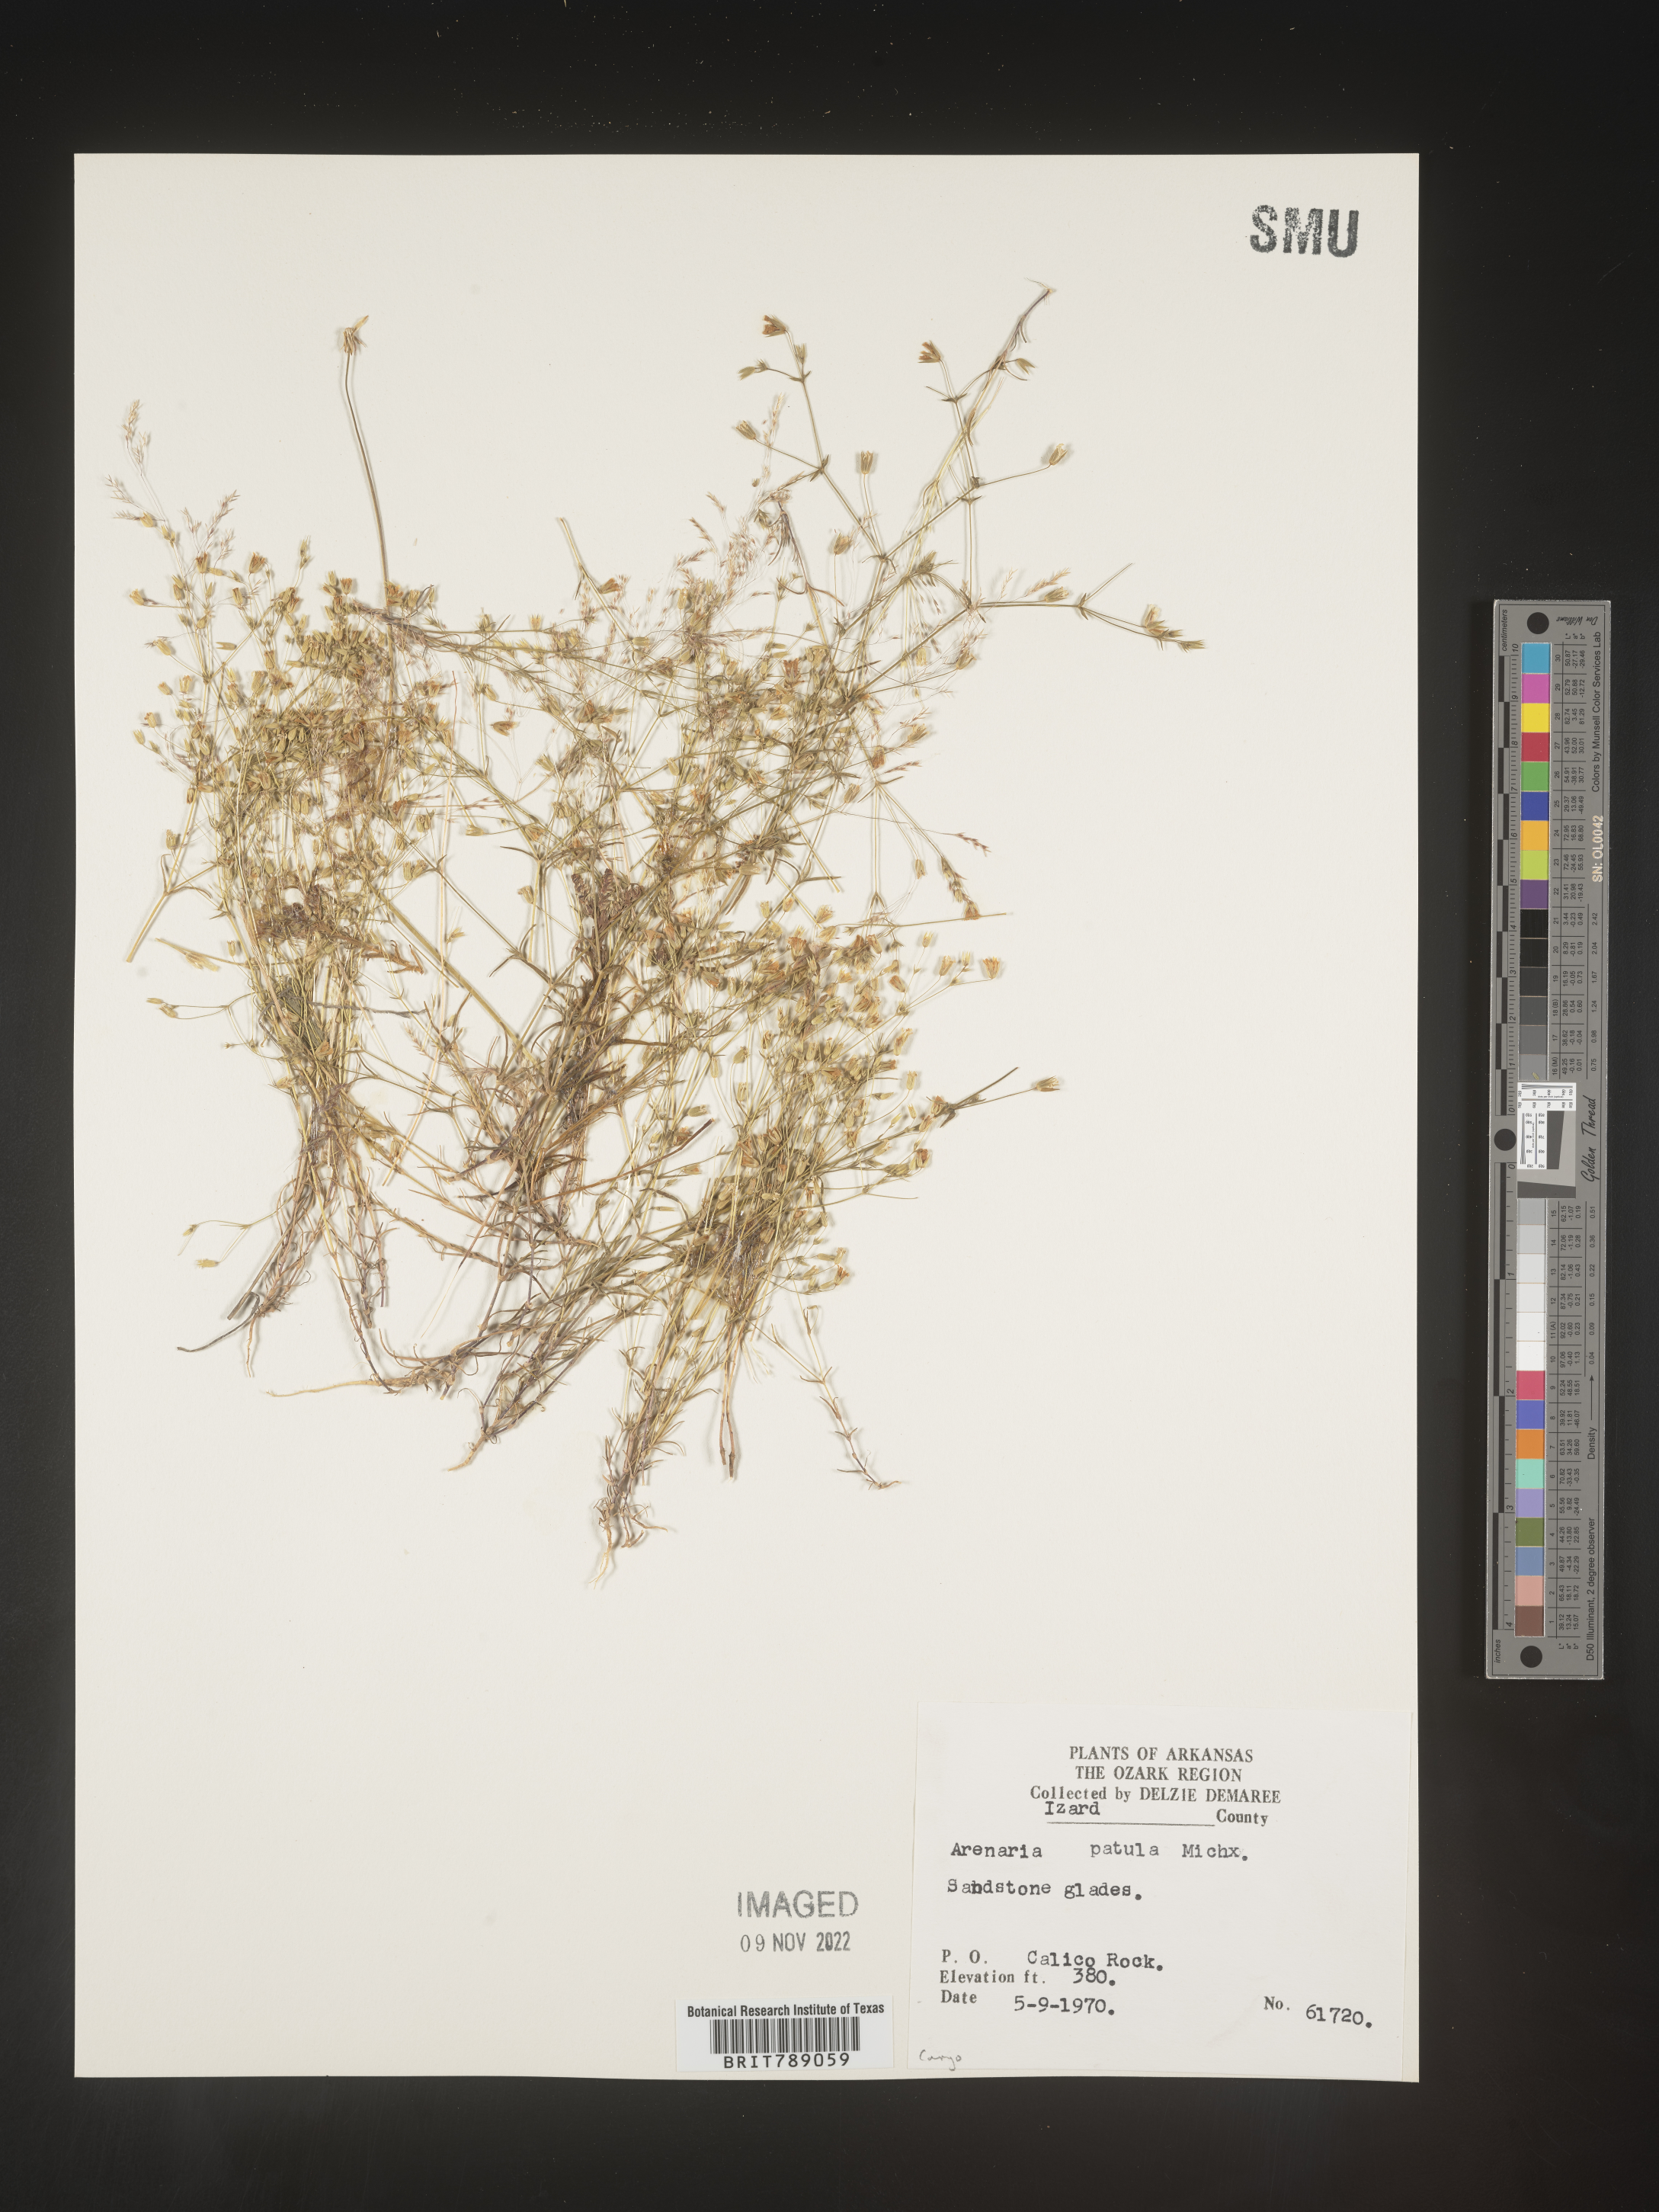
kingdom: Plantae
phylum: Tracheophyta
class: Magnoliopsida
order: Caryophyllales
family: Caryophyllaceae
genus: Mononeuria
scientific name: Mononeuria patula
